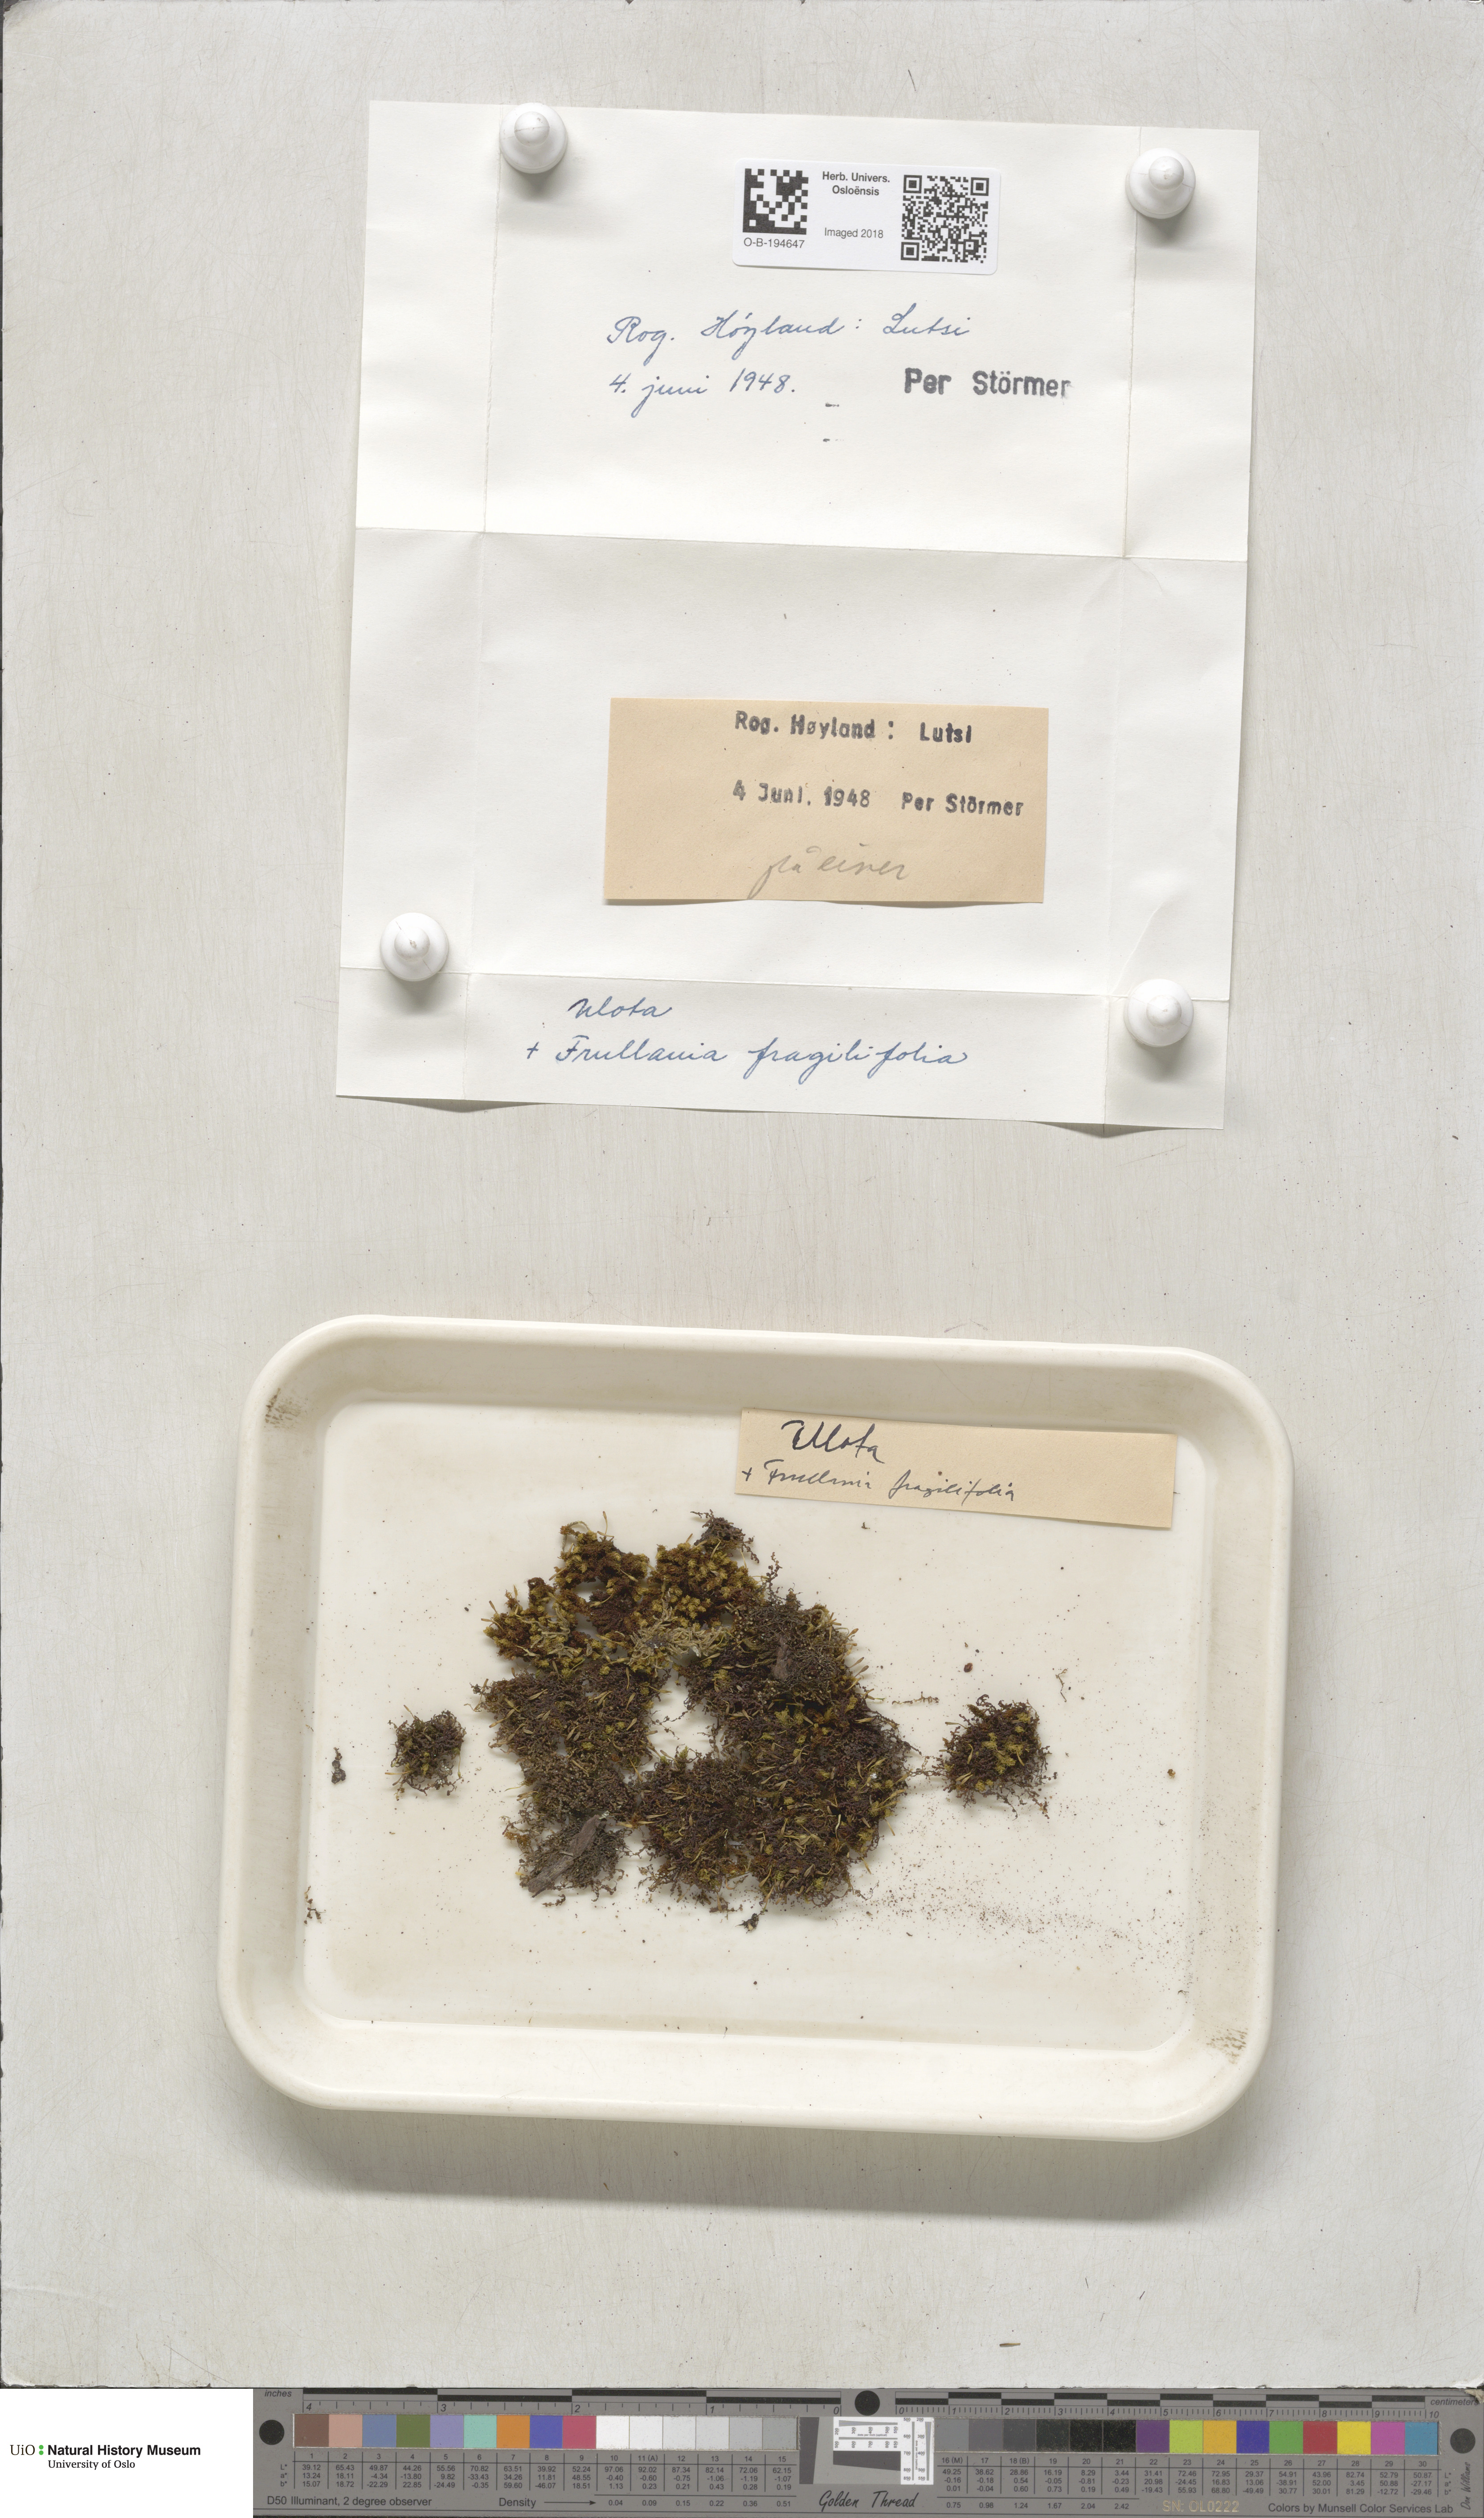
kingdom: Plantae
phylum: Bryophyta
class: Bryopsida
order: Orthotrichales
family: Orthotrichaceae
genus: Ulota
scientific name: Ulota
